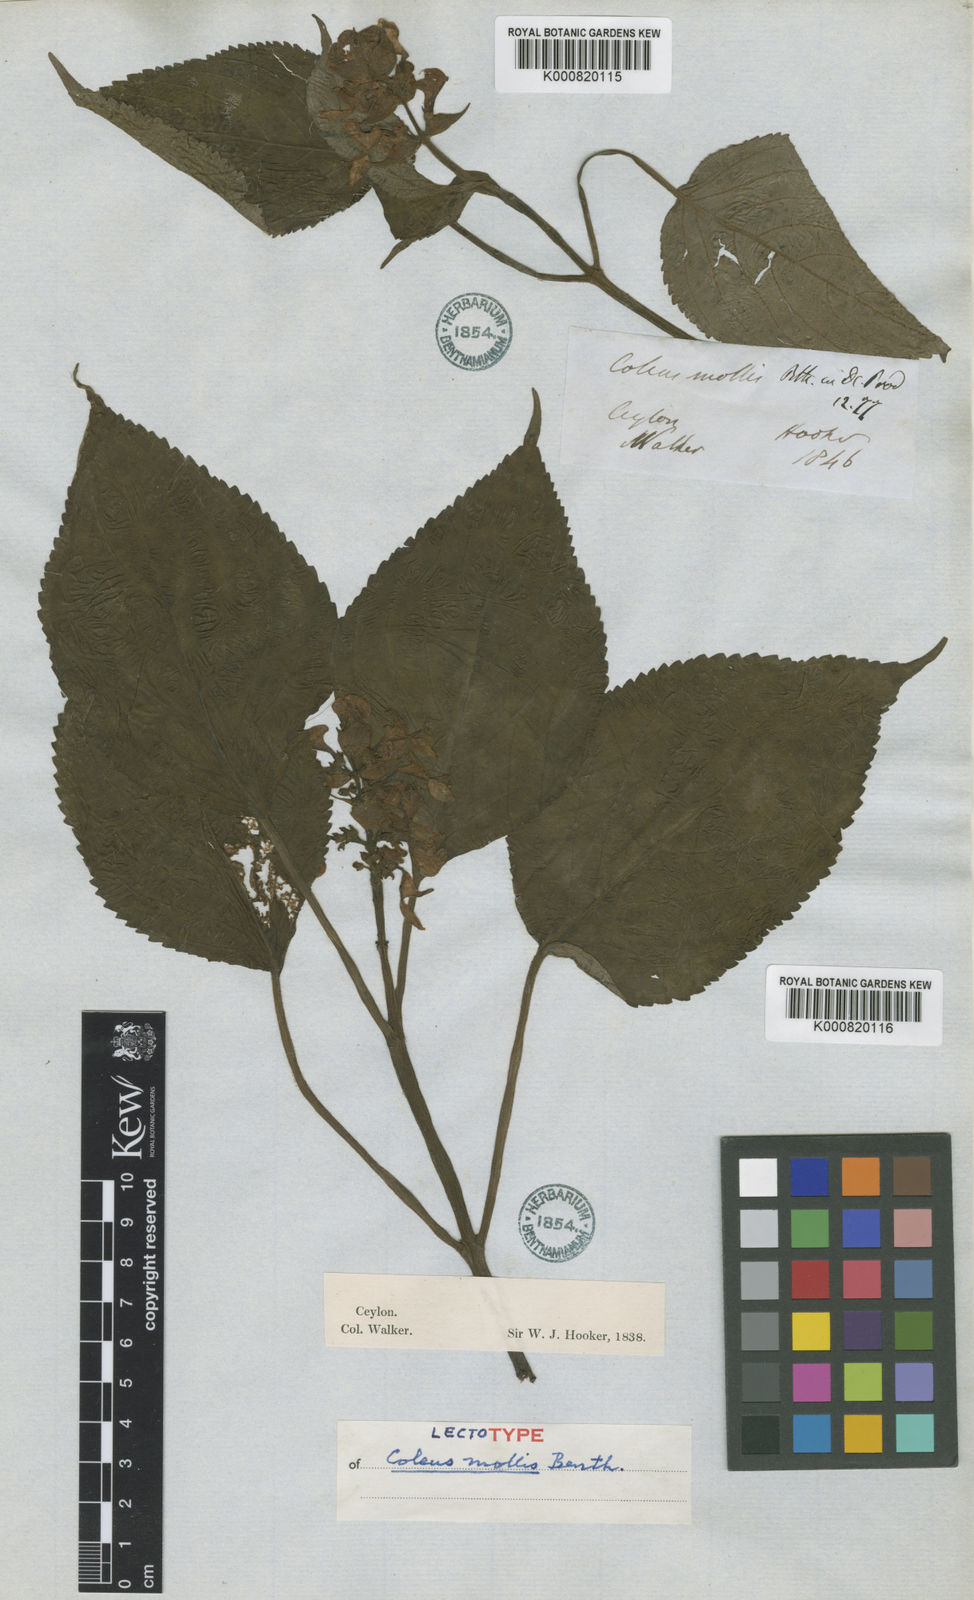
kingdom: Plantae
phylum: Tracheophyta
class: Magnoliopsida
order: Lamiales
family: Lamiaceae
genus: Coleus
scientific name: Coleus mollis
